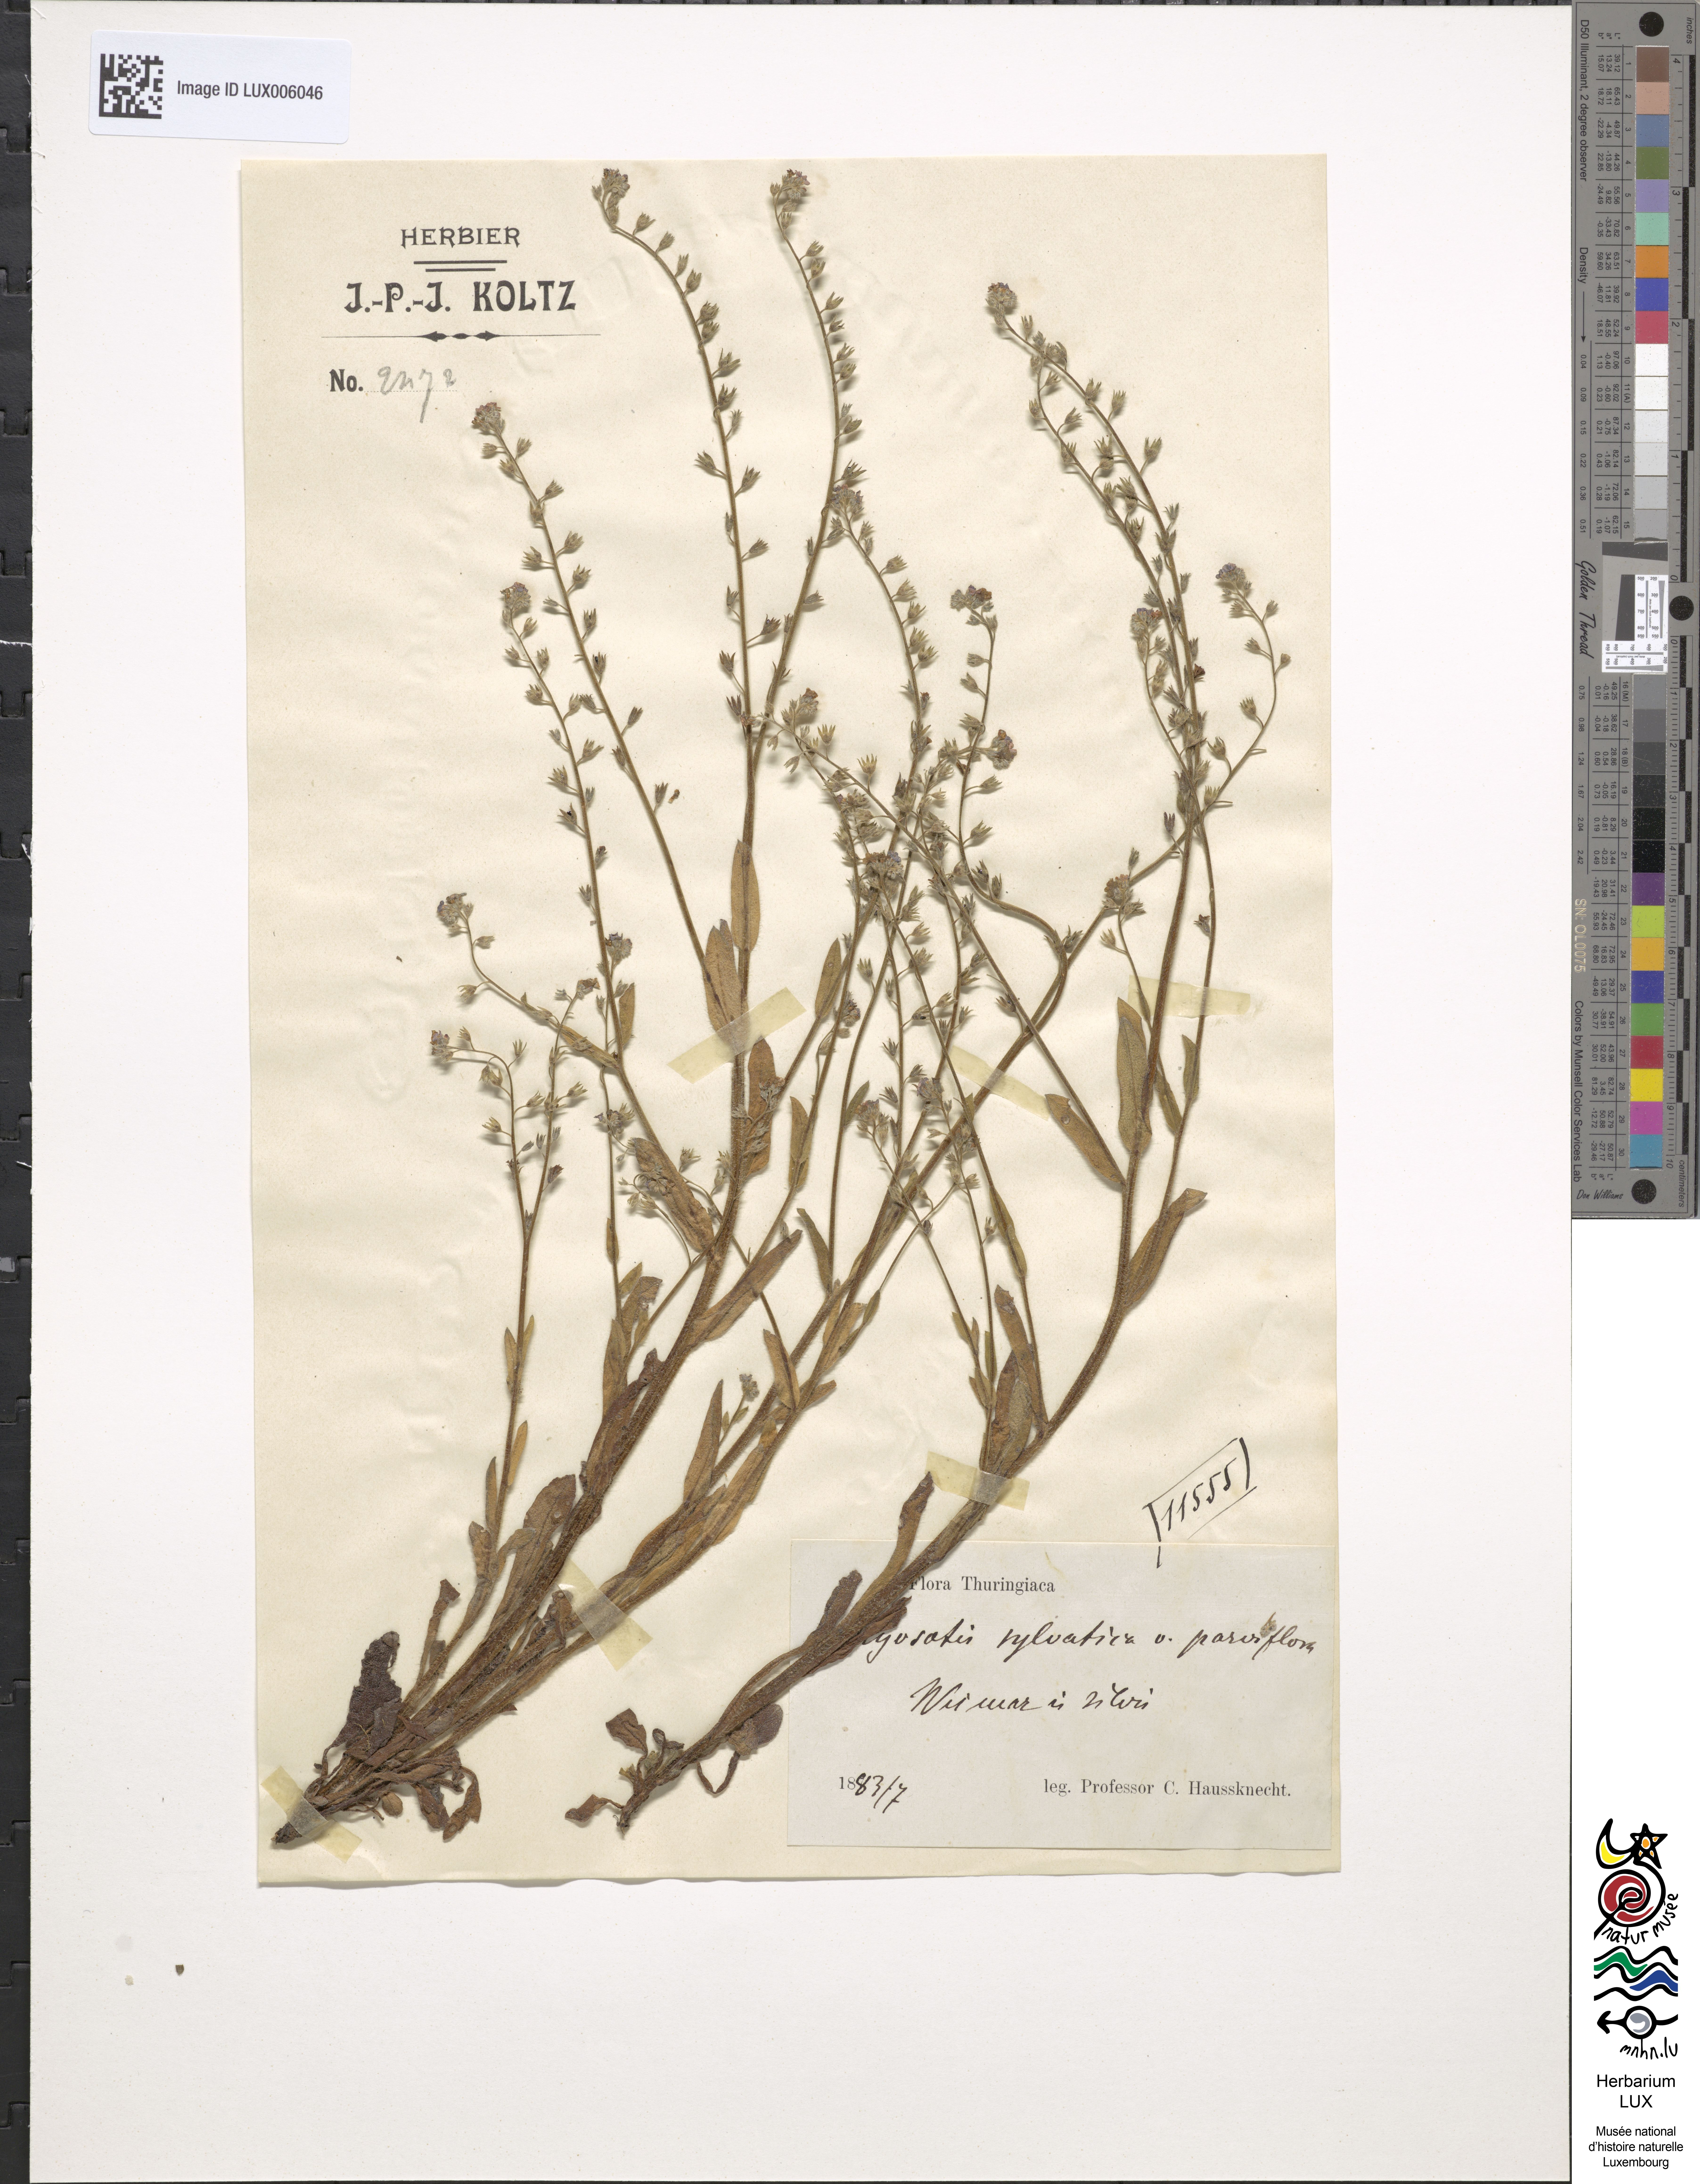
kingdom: Plantae
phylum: Tracheophyta
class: Magnoliopsida
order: Boraginales
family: Boraginaceae
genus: Myosotis
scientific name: Myosotis sylvatica
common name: Wood forget-me-not
